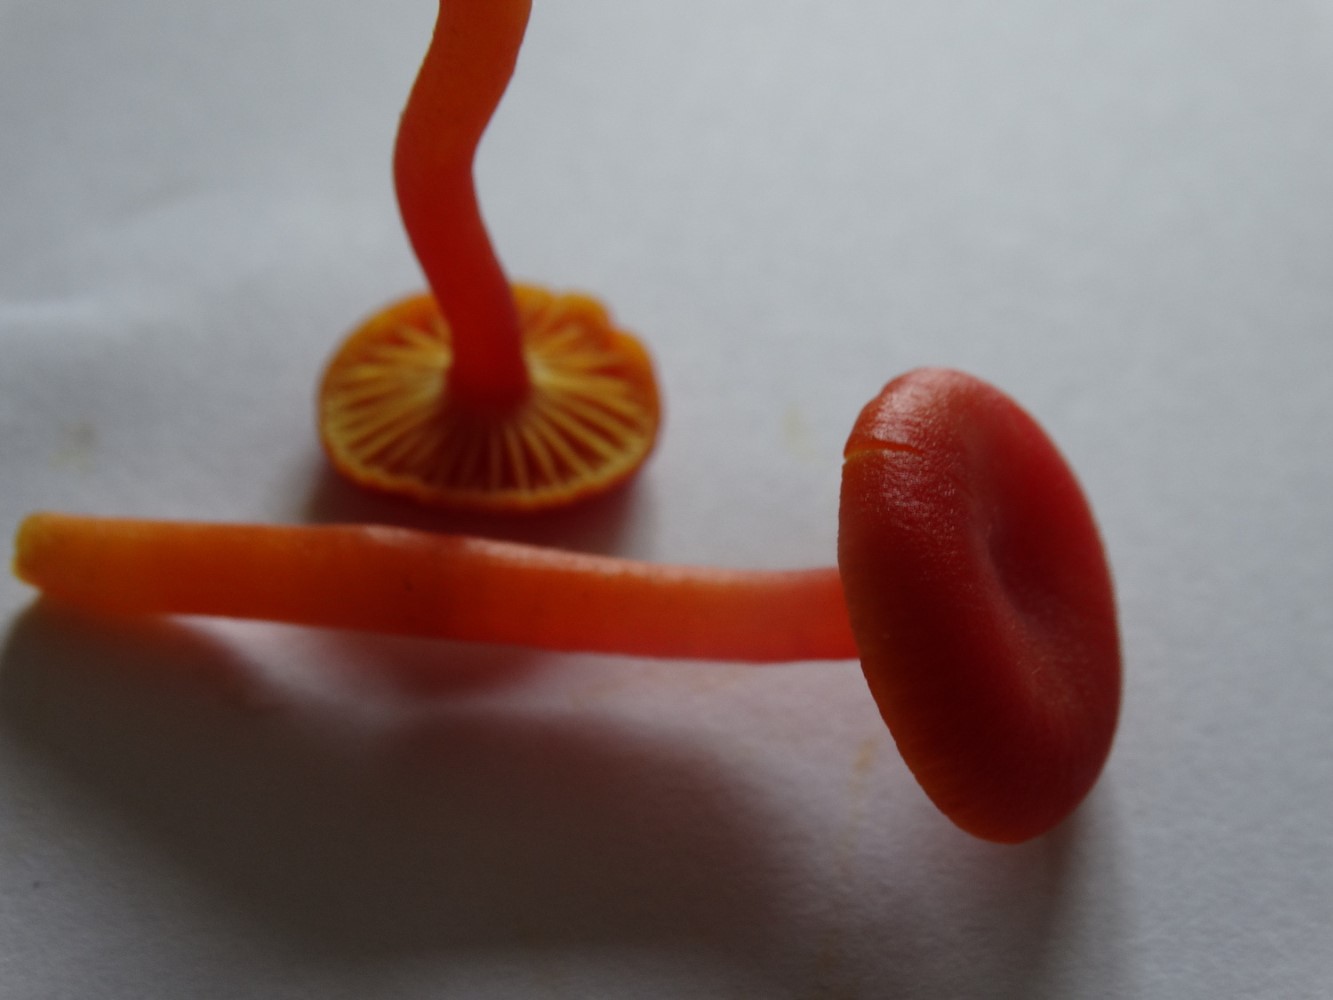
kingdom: Fungi
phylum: Basidiomycota
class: Agaricomycetes
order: Agaricales
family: Hygrophoraceae
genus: Hygrocybe
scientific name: Hygrocybe miniata
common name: mønje-vokshat
